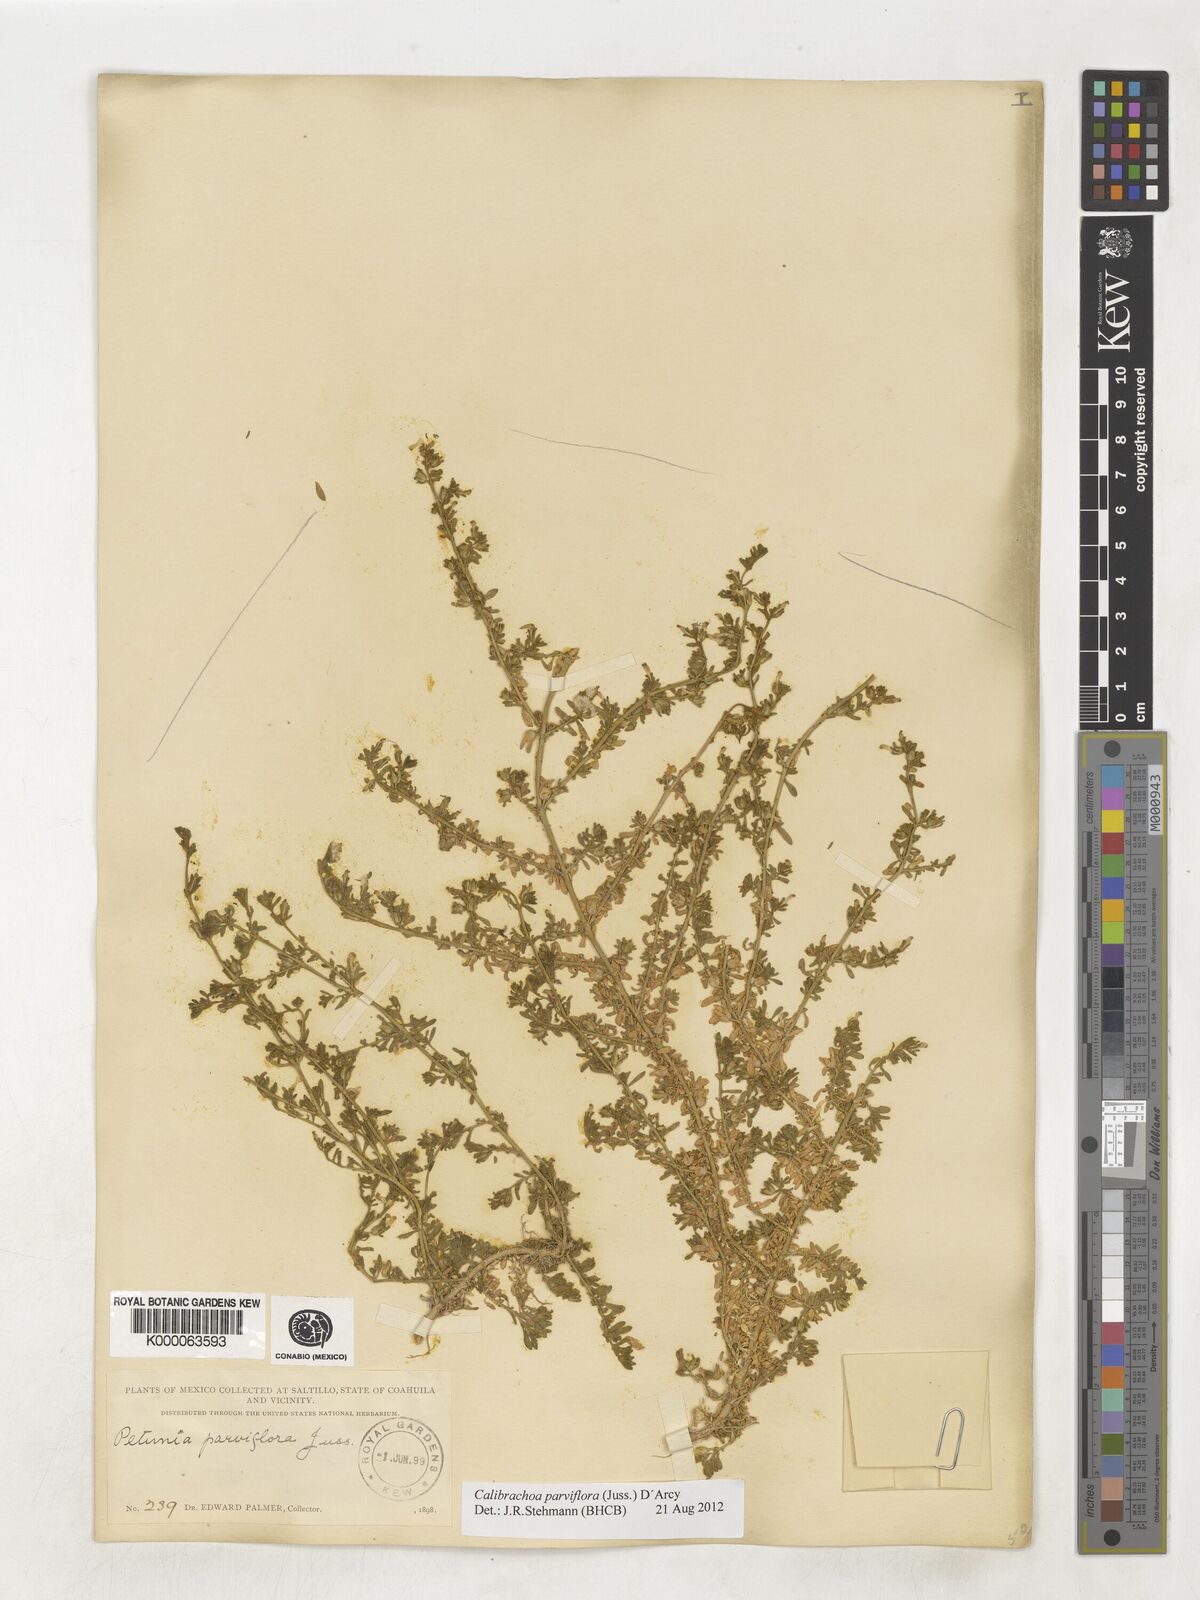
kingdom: Plantae
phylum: Tracheophyta
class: Magnoliopsida
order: Solanales
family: Solanaceae
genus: Calibrachoa
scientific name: Calibrachoa parviflora
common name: Seaside petunia
